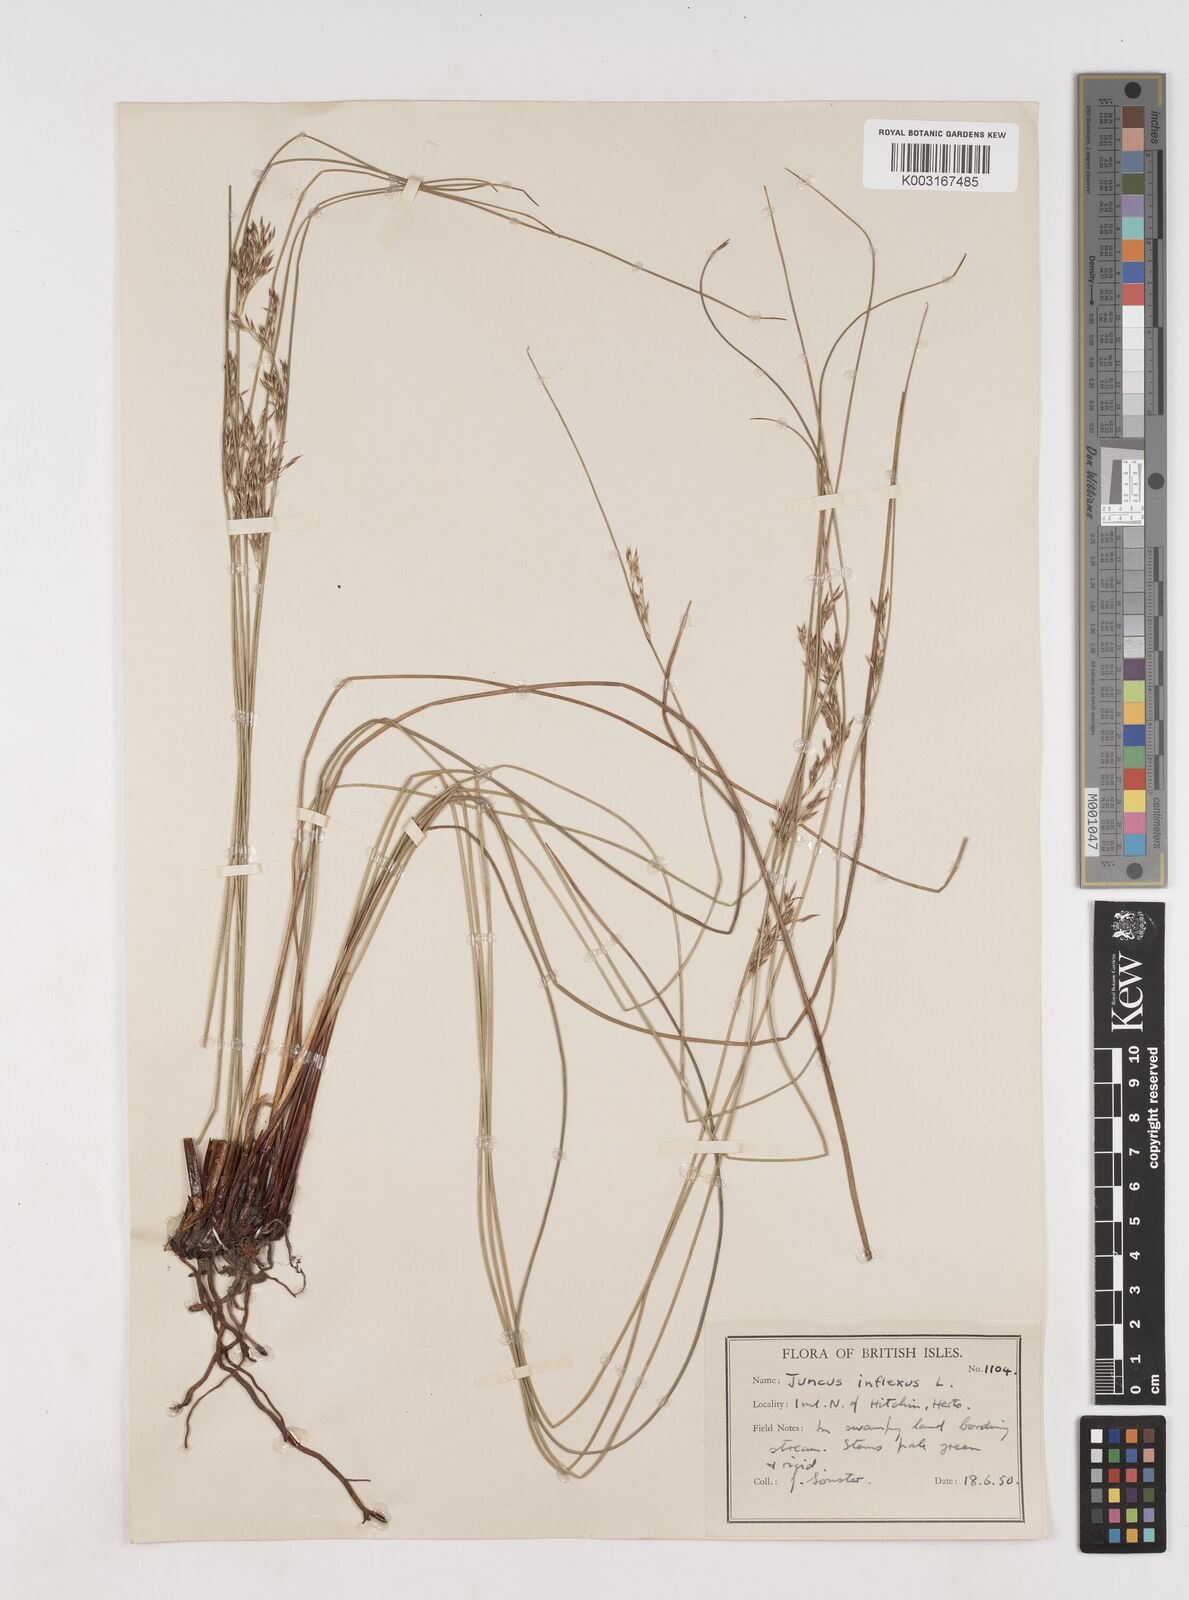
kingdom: Plantae
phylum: Tracheophyta
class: Liliopsida
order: Poales
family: Juncaceae
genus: Juncus
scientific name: Juncus inflexus
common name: Hard rush
